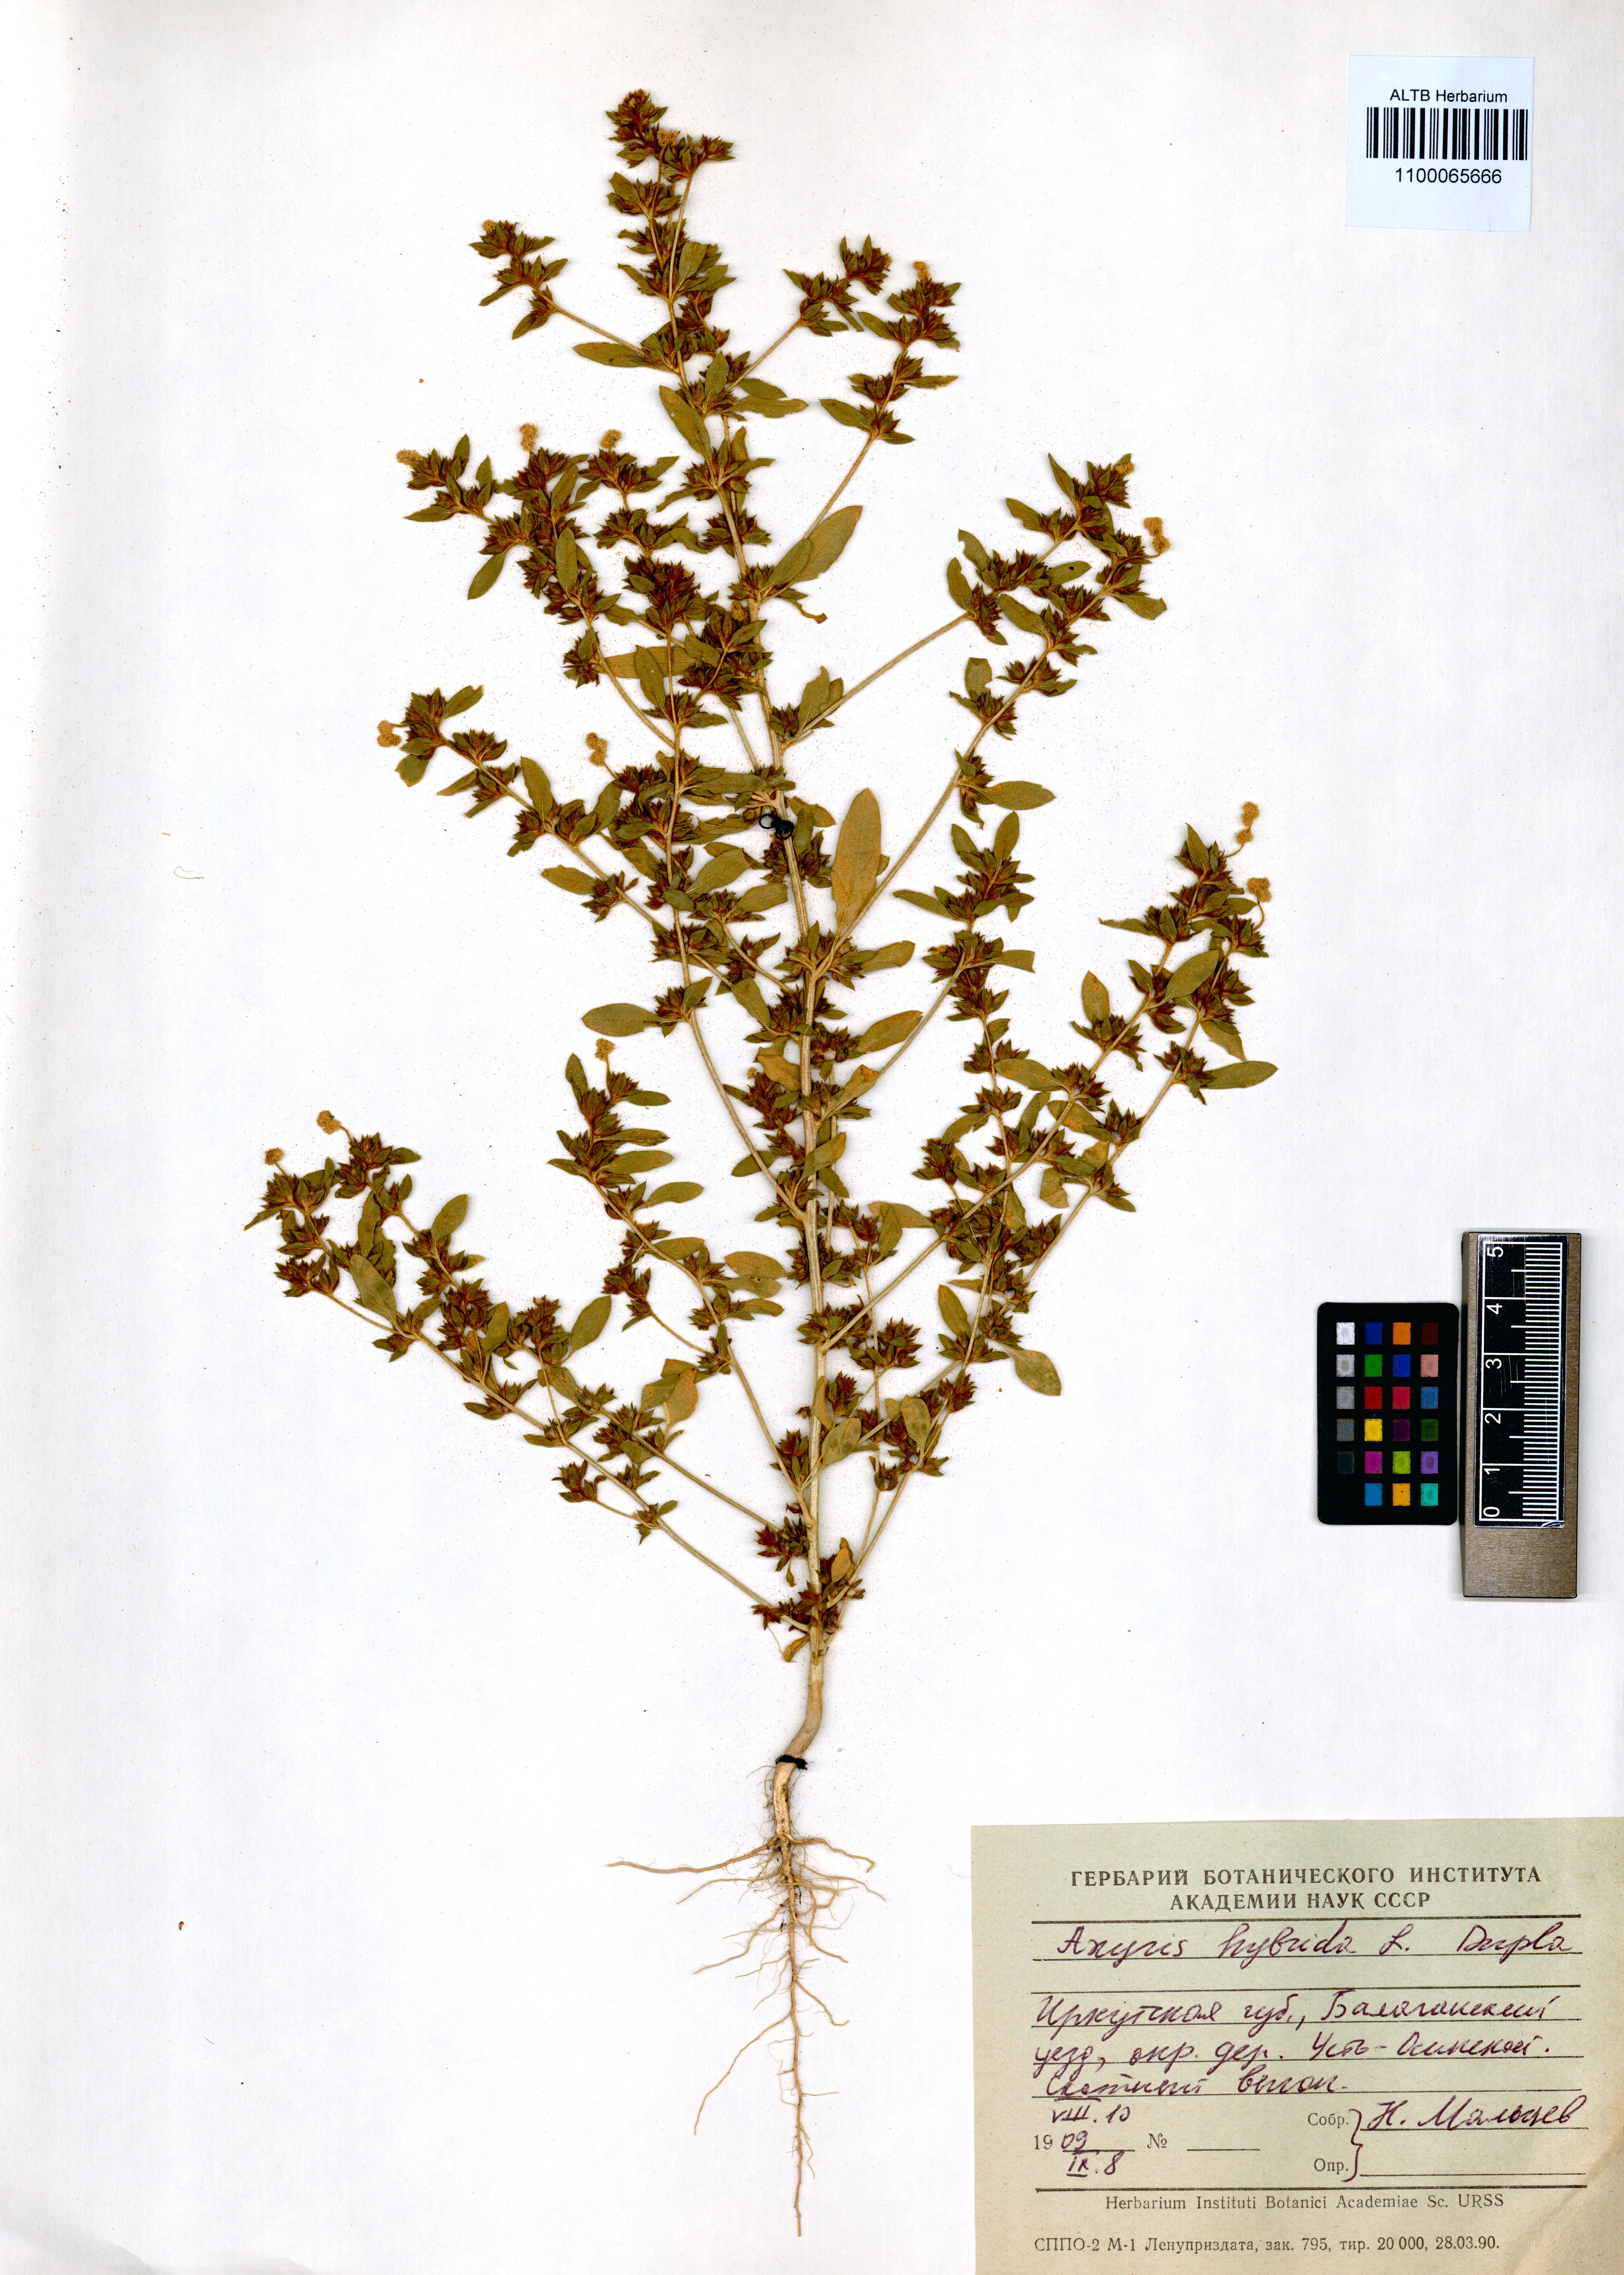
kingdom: Plantae
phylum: Tracheophyta
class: Magnoliopsida
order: Caryophyllales
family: Amaranthaceae
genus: Axyris
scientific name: Axyris hybrida
